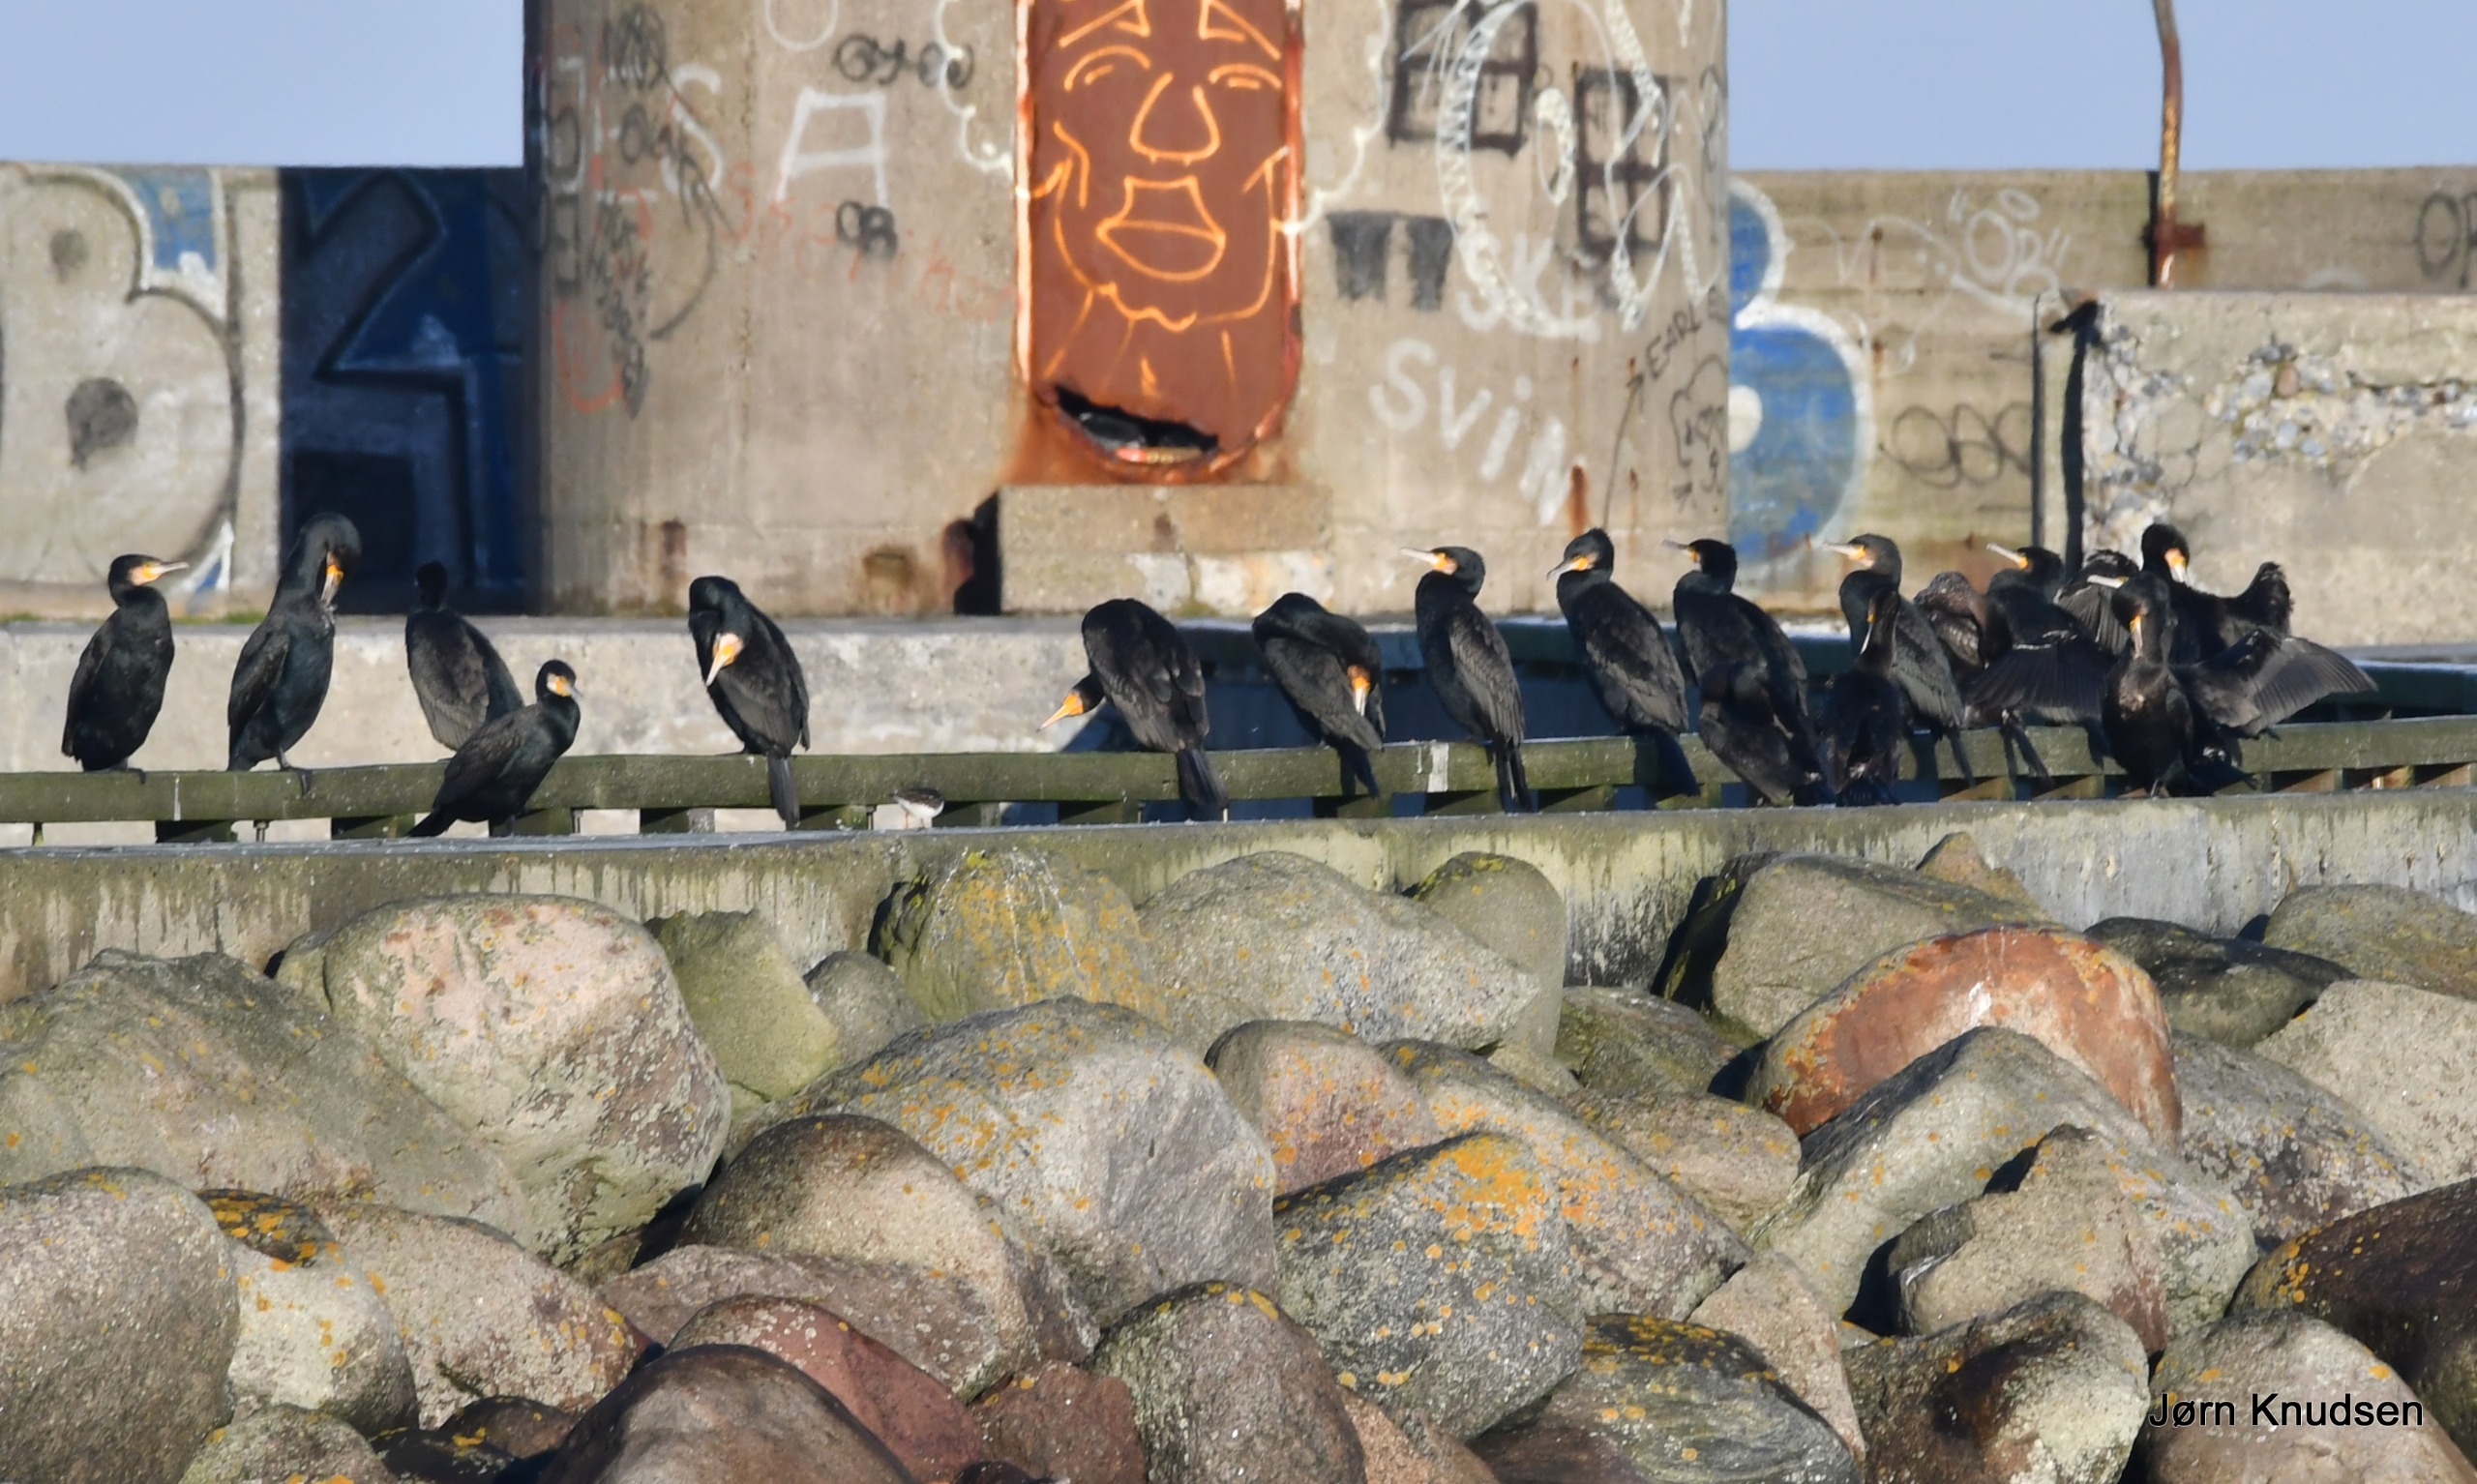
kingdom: Animalia
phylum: Chordata
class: Aves
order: Suliformes
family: Phalacrocoracidae
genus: Phalacrocorax
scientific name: Phalacrocorax carbo
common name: Skarv
